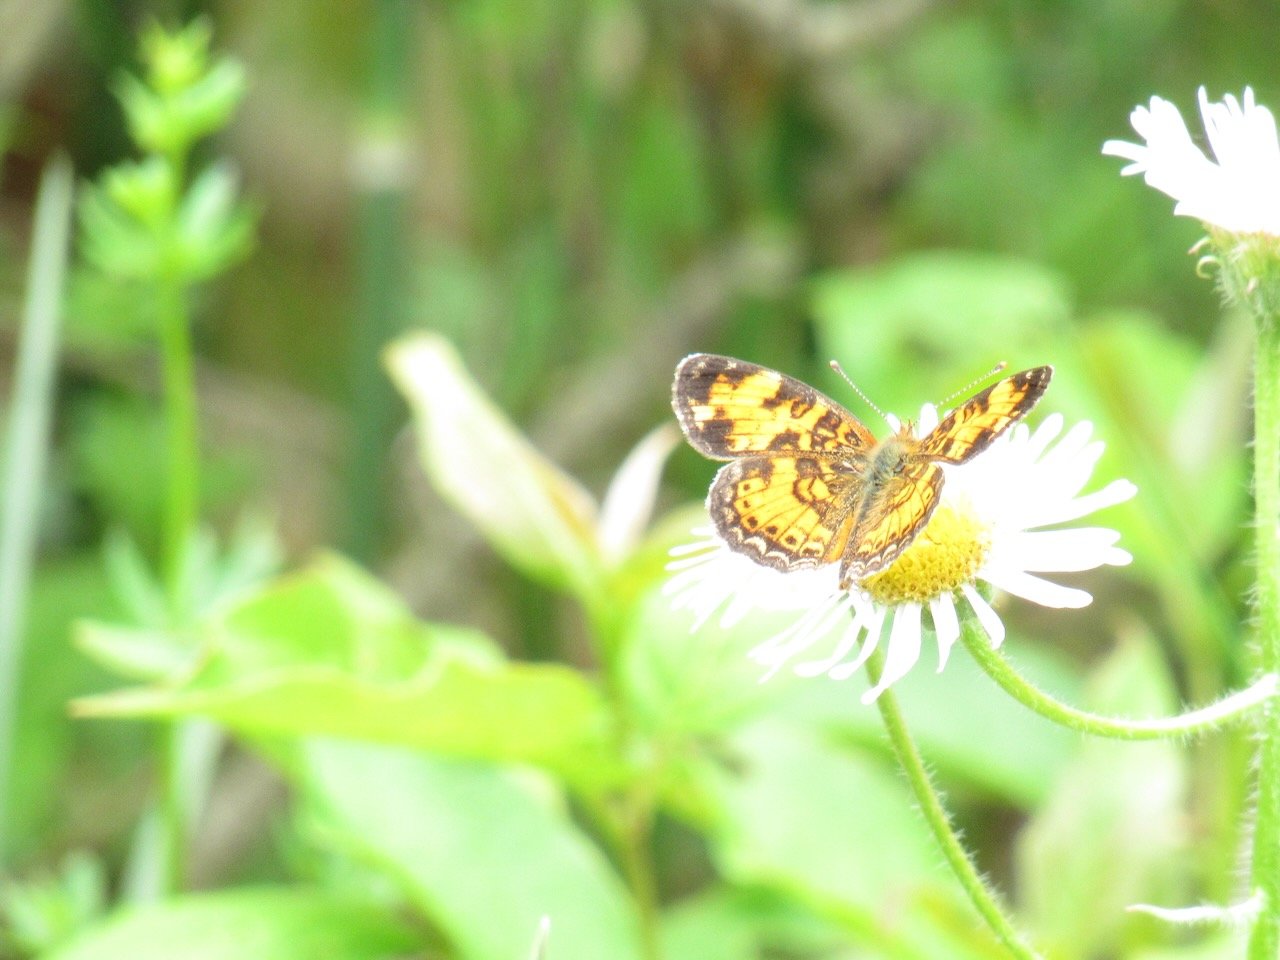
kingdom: Animalia
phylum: Arthropoda
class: Insecta
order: Lepidoptera
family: Nymphalidae
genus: Phyciodes
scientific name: Phyciodes tharos
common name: Pearl Crescent
